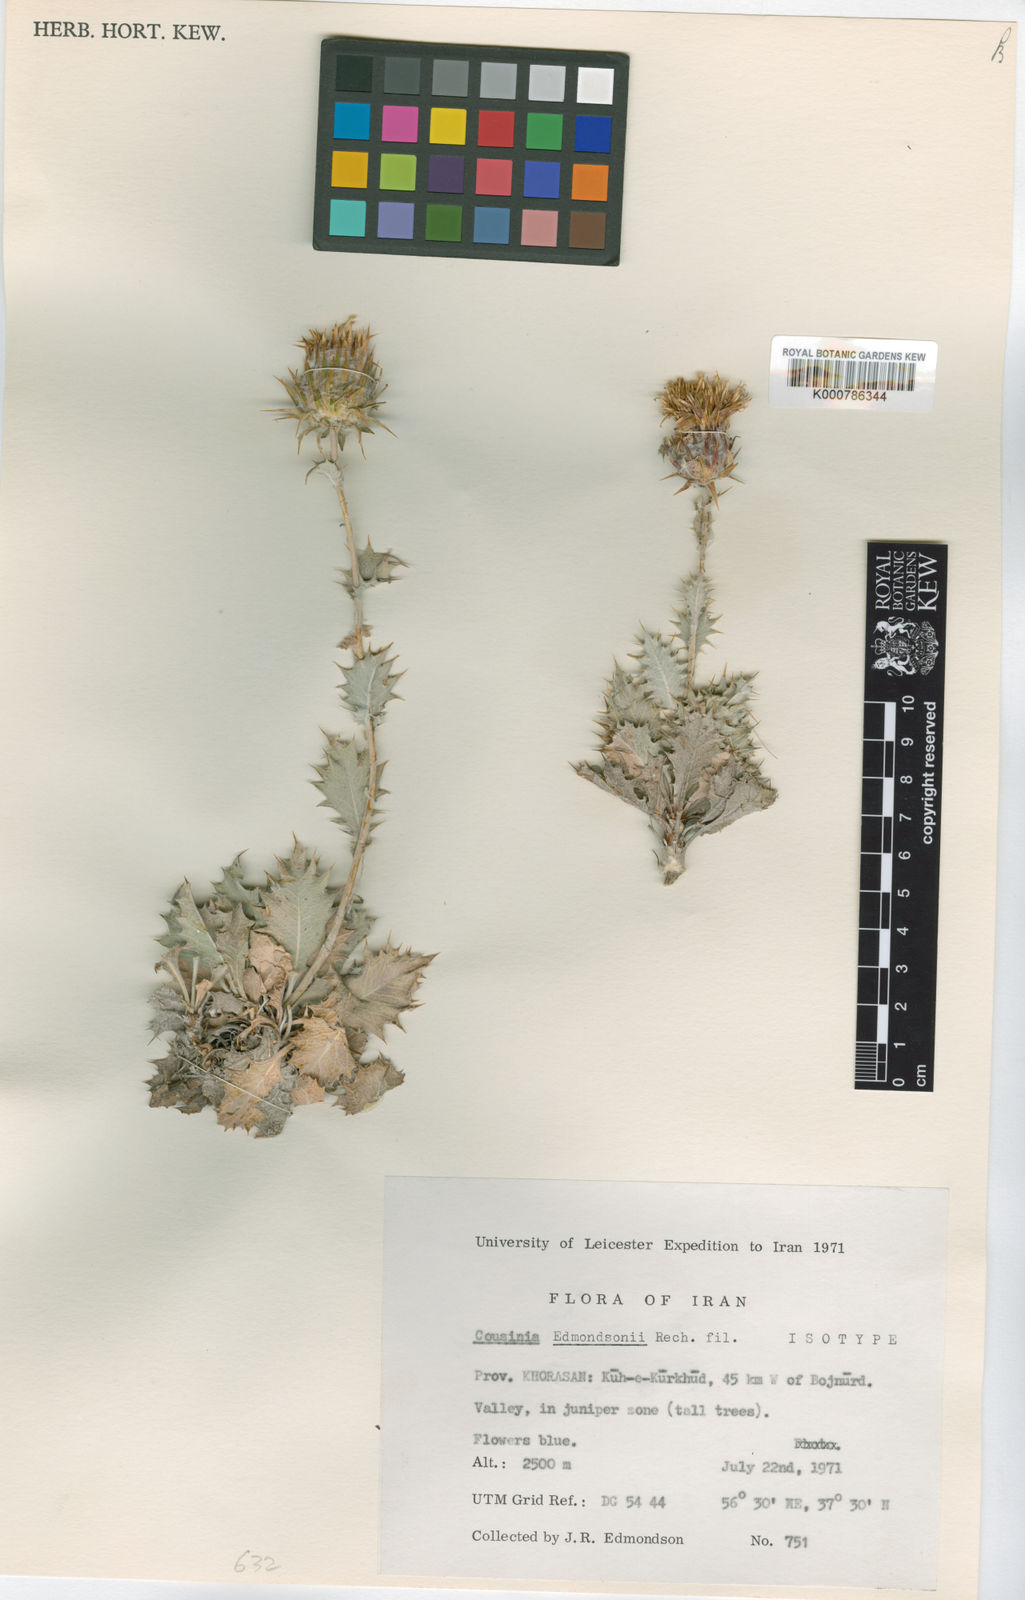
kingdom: Plantae
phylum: Tracheophyta
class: Magnoliopsida
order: Asterales
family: Asteraceae
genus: Cousinia
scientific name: Cousinia edmondsonii
